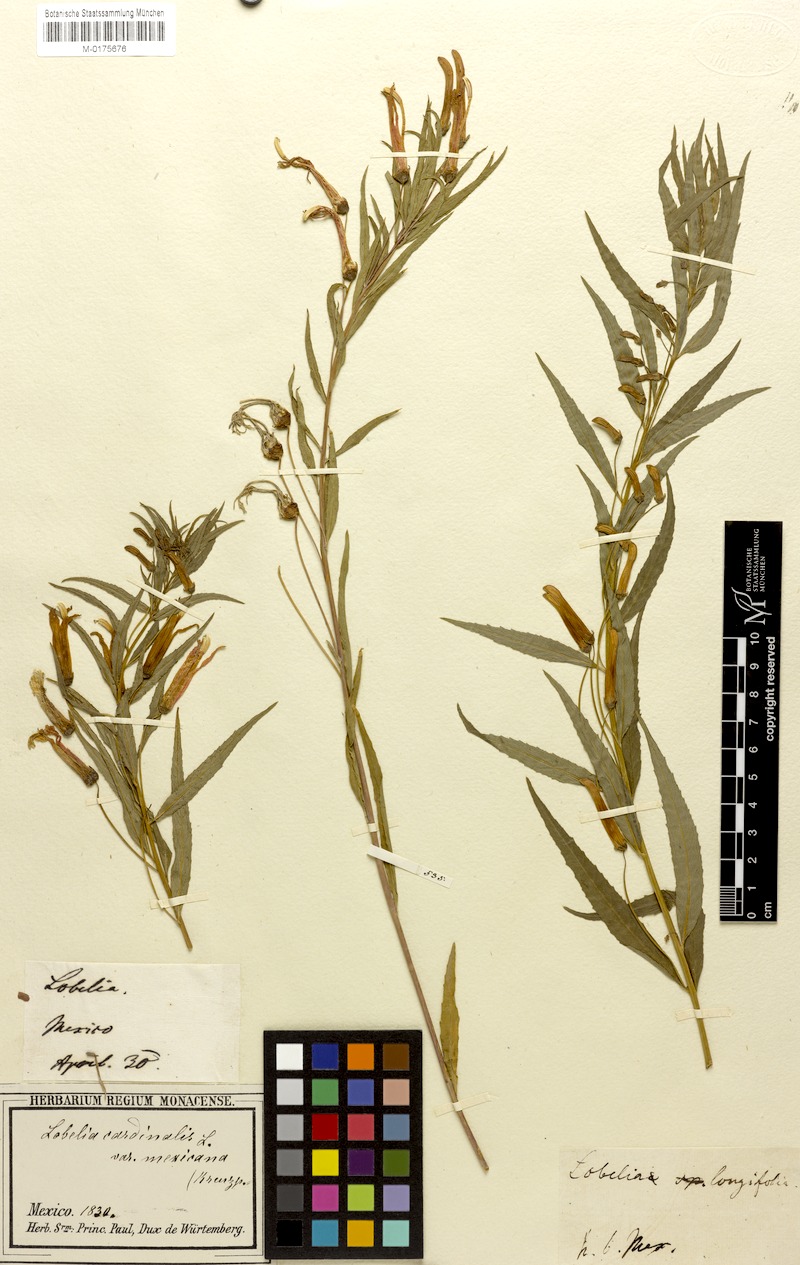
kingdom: Plantae
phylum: Tracheophyta
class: Magnoliopsida
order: Asterales
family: Campanulaceae
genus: Lobelia
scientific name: Lobelia cardinalis
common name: Cardinal flower
